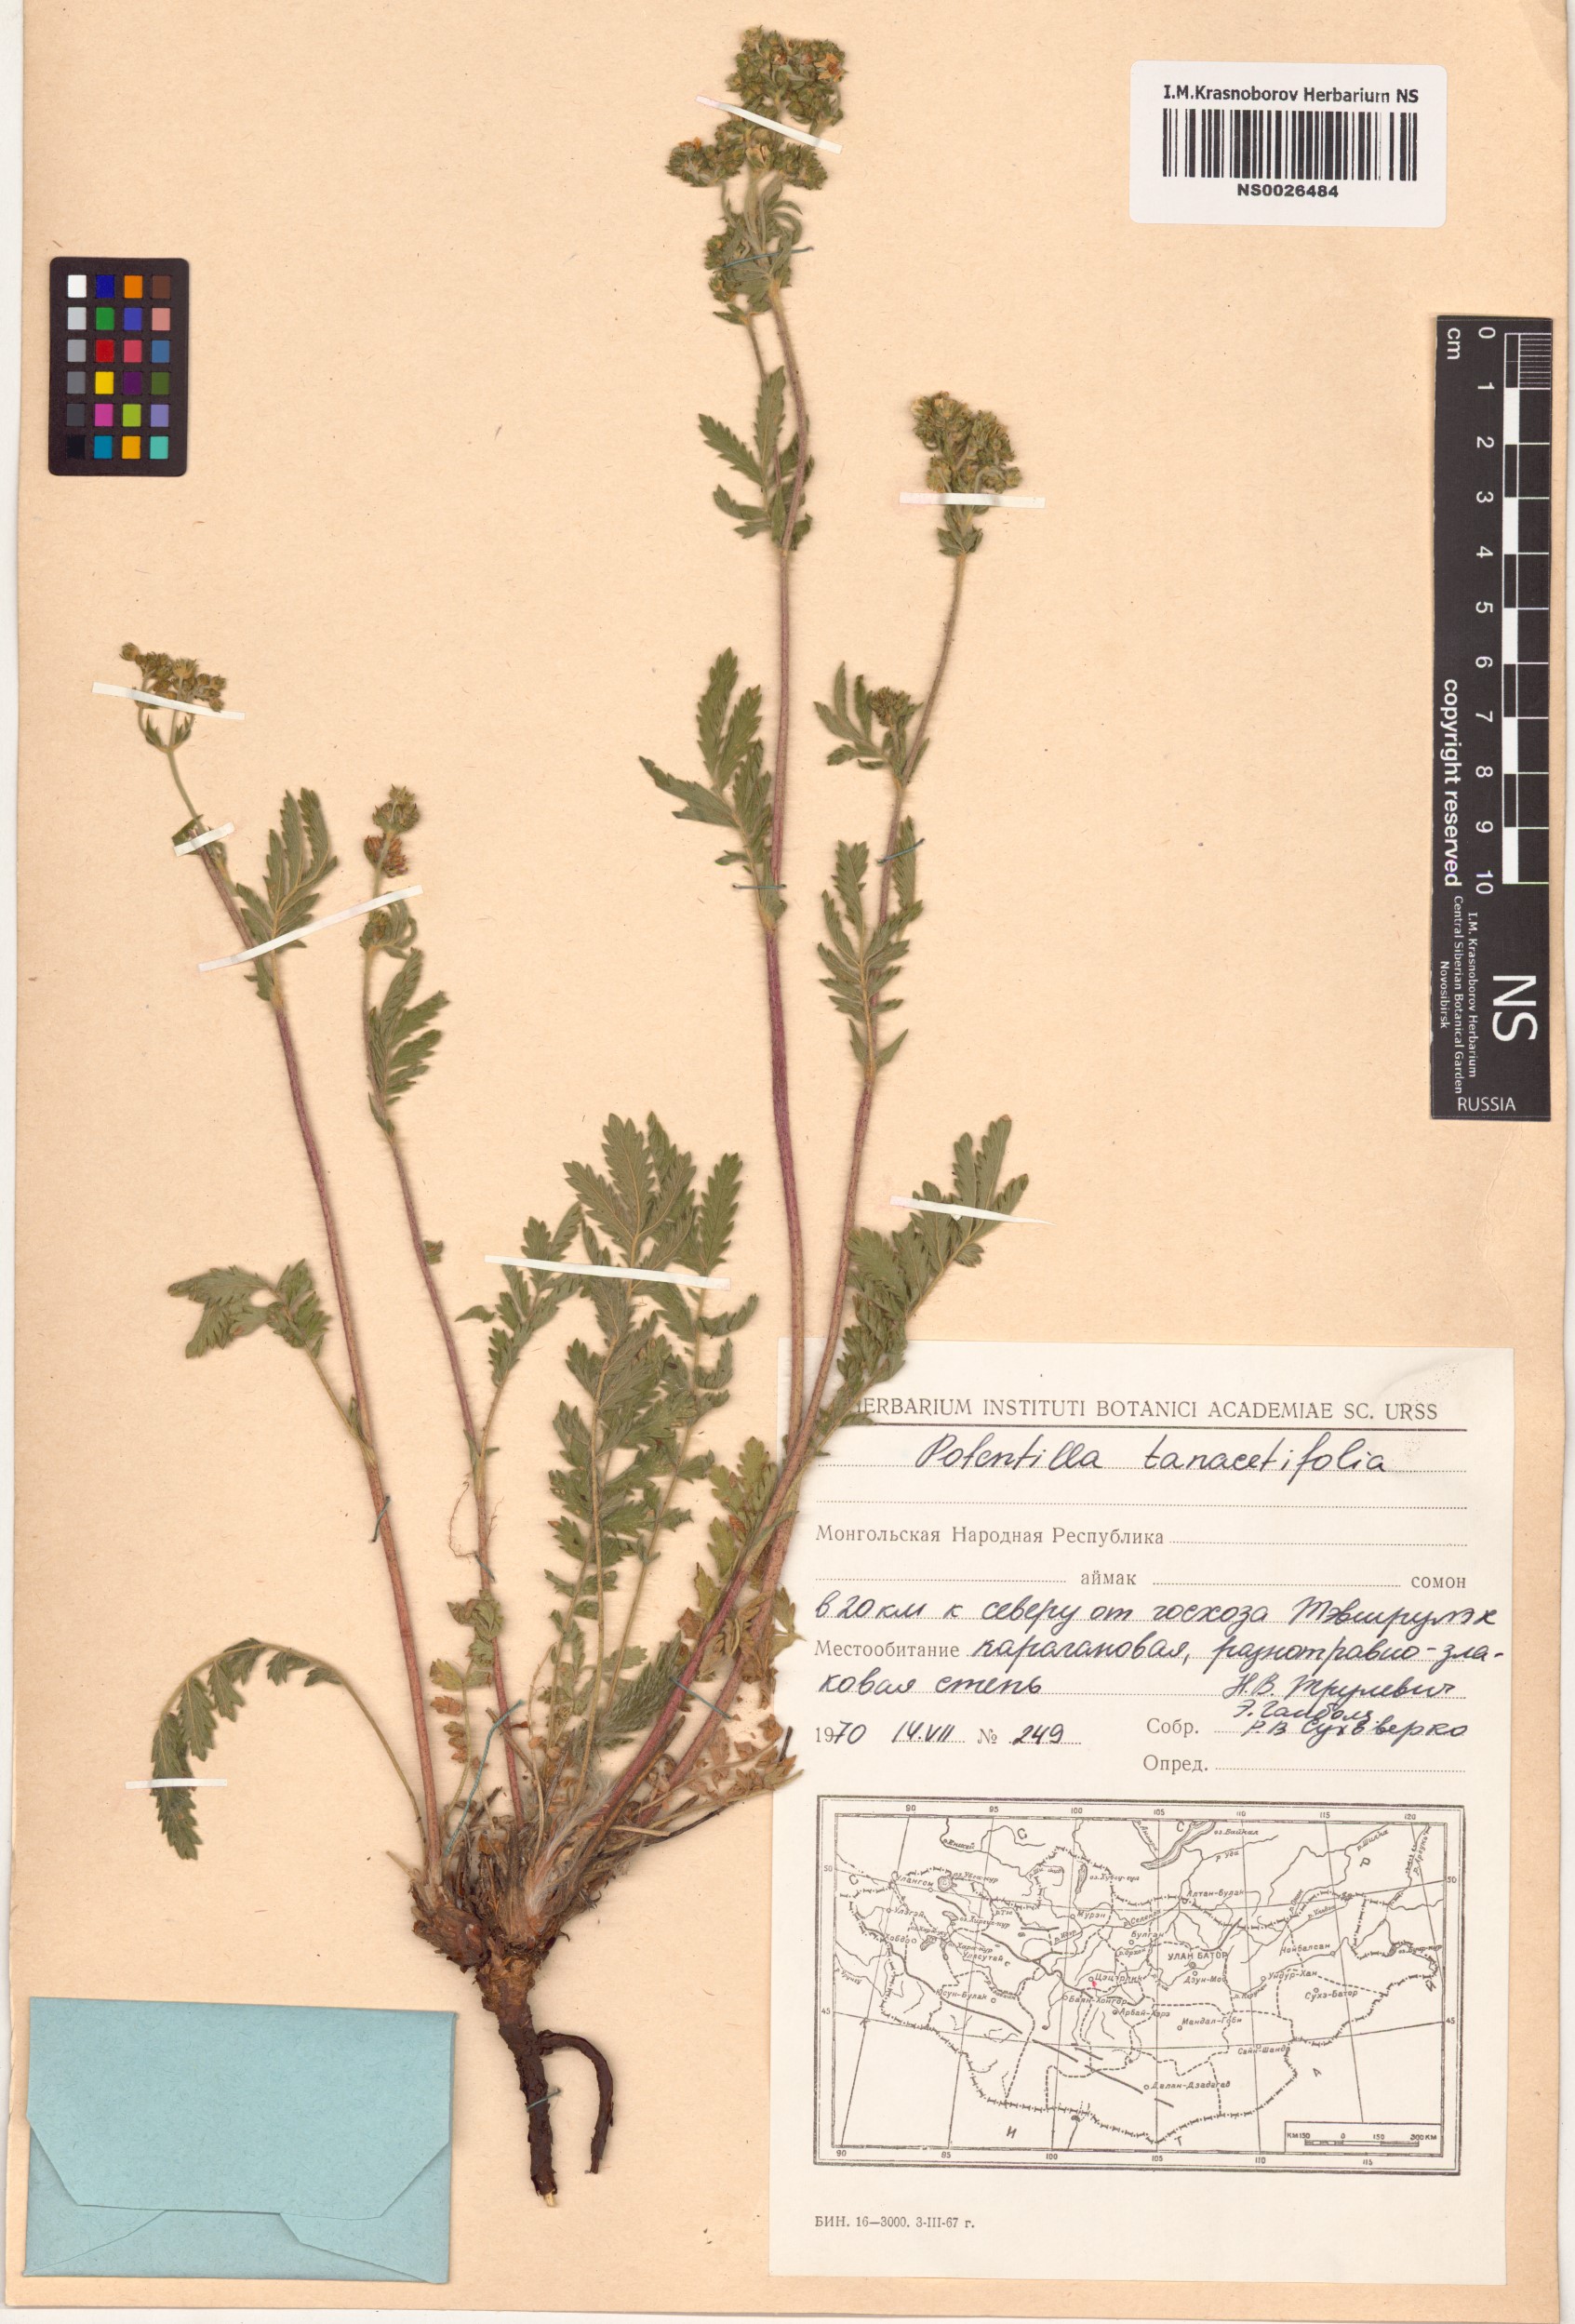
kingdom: Plantae
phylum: Tracheophyta
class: Magnoliopsida
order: Rosales
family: Rosaceae
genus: Potentilla
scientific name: Potentilla tanacetifolia
